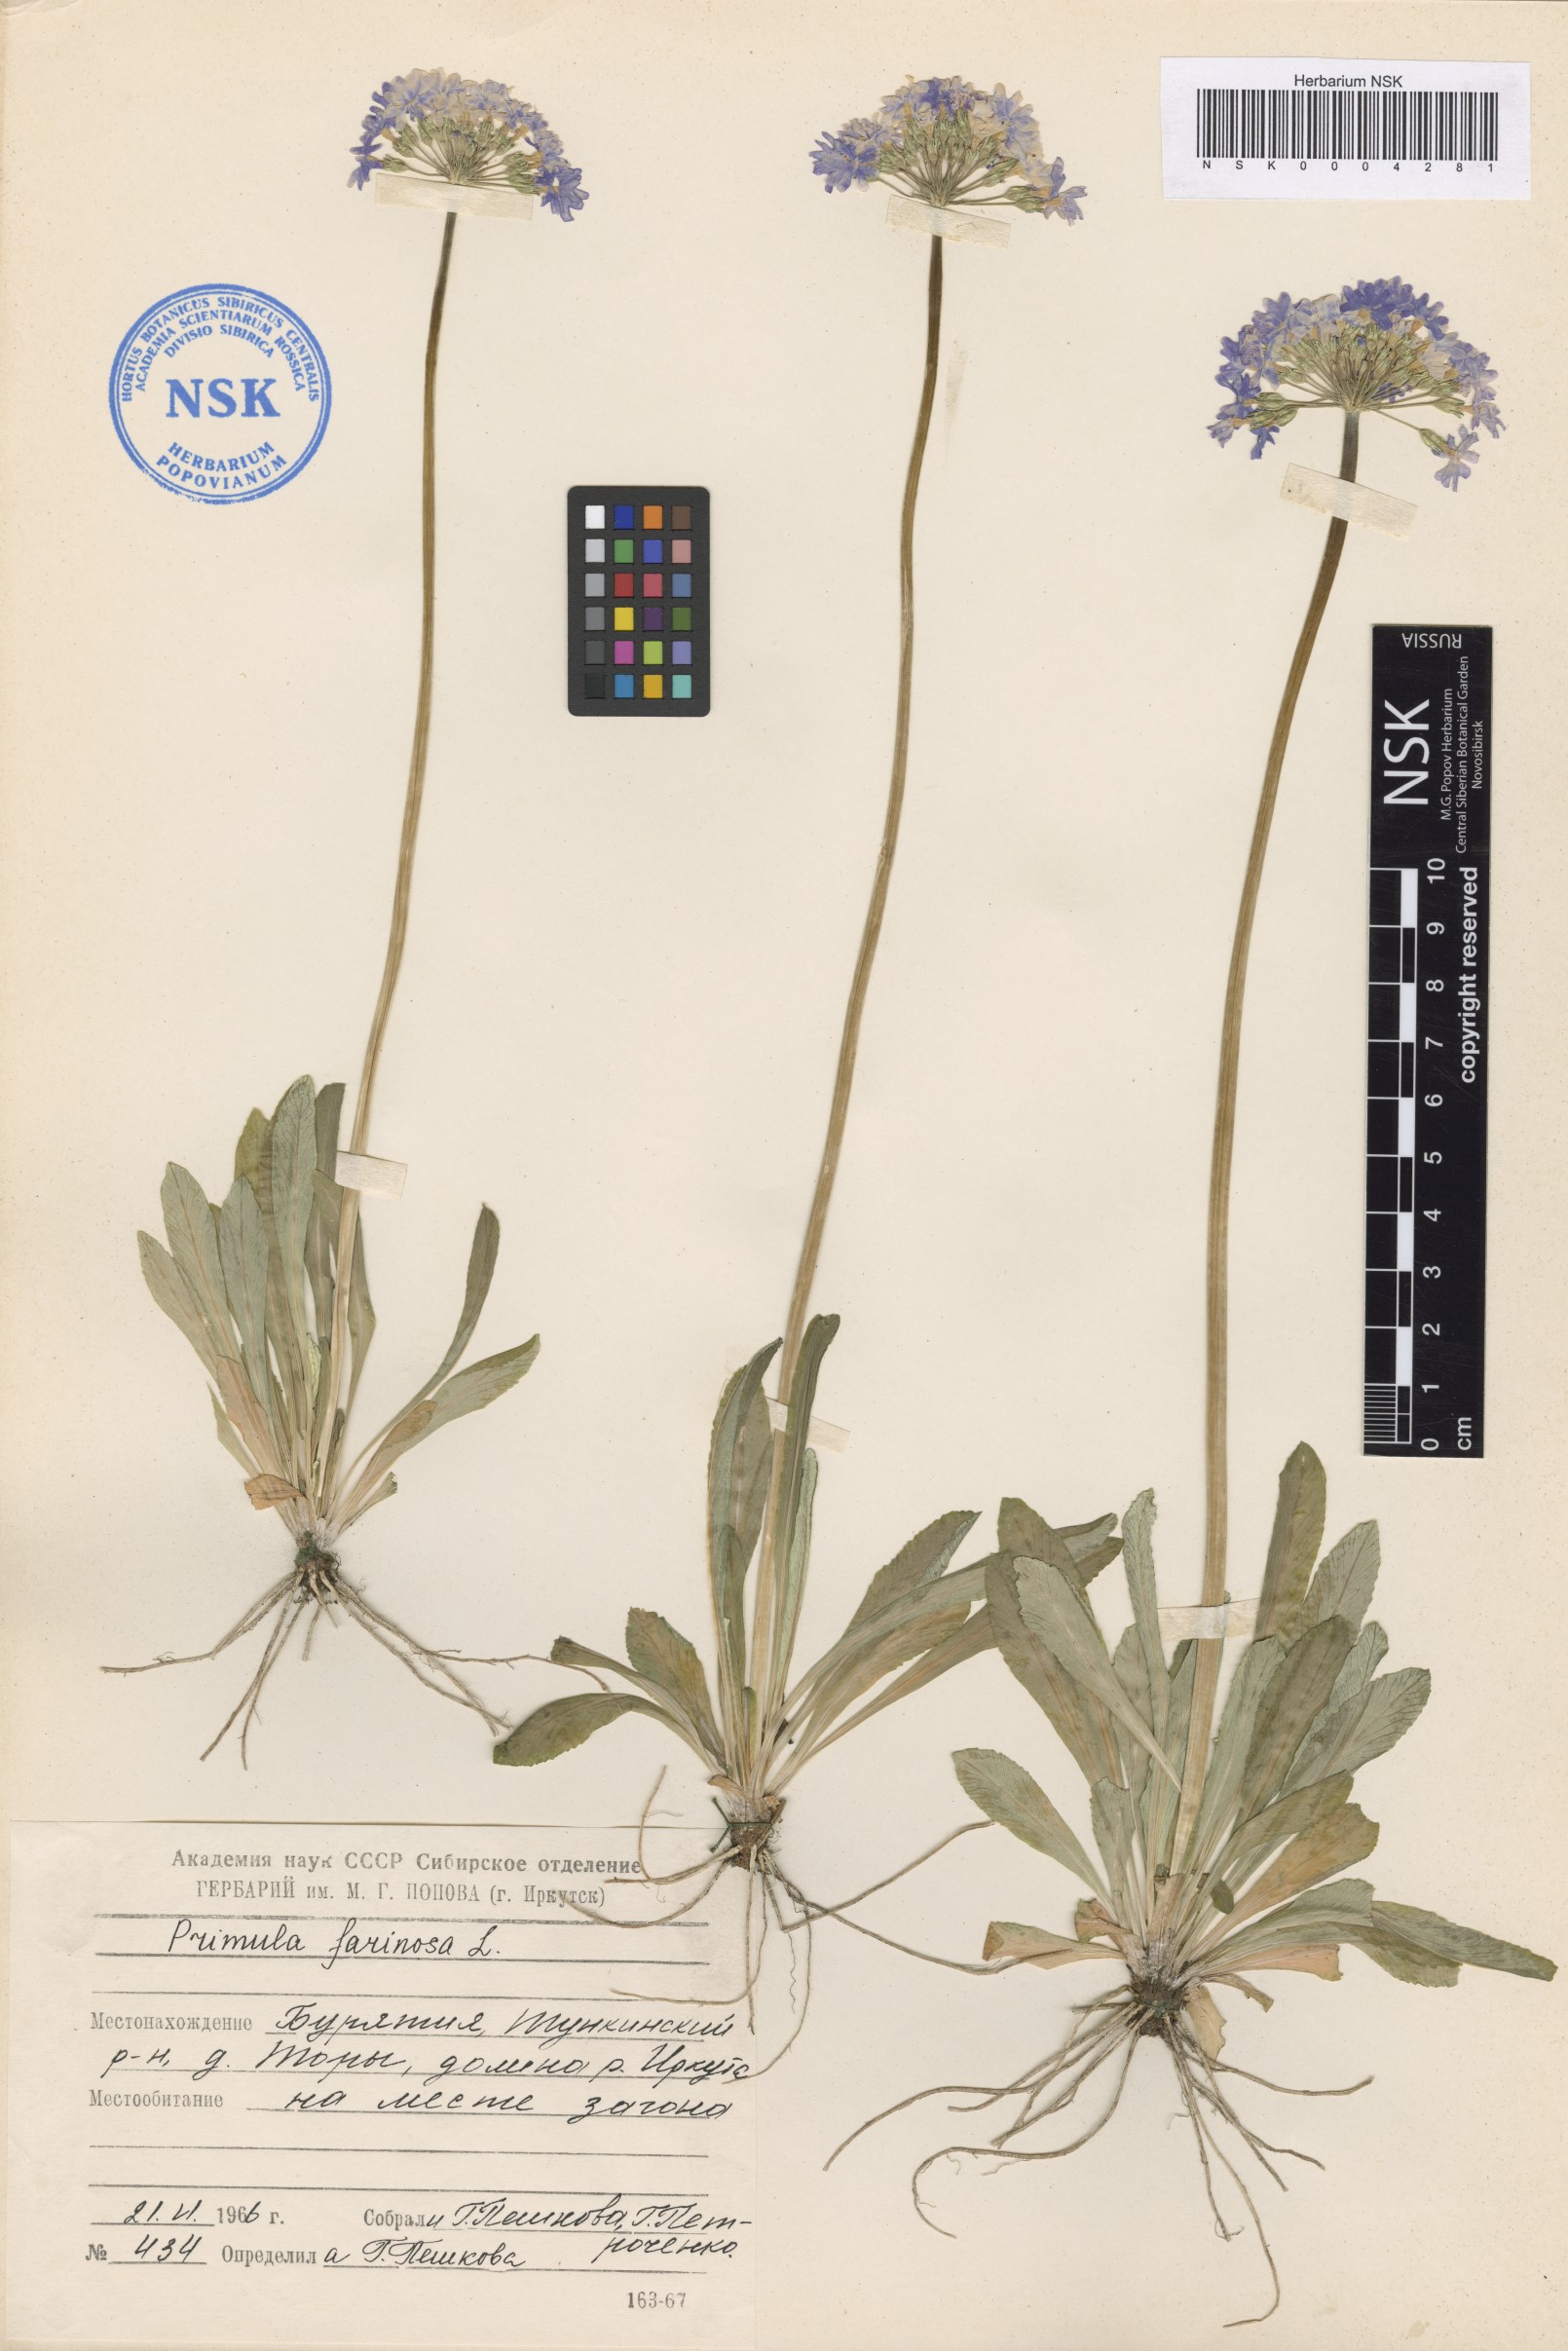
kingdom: Plantae
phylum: Tracheophyta
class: Magnoliopsida
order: Ericales
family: Primulaceae
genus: Primula
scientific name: Primula farinosa
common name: Bird's-eye primrose
